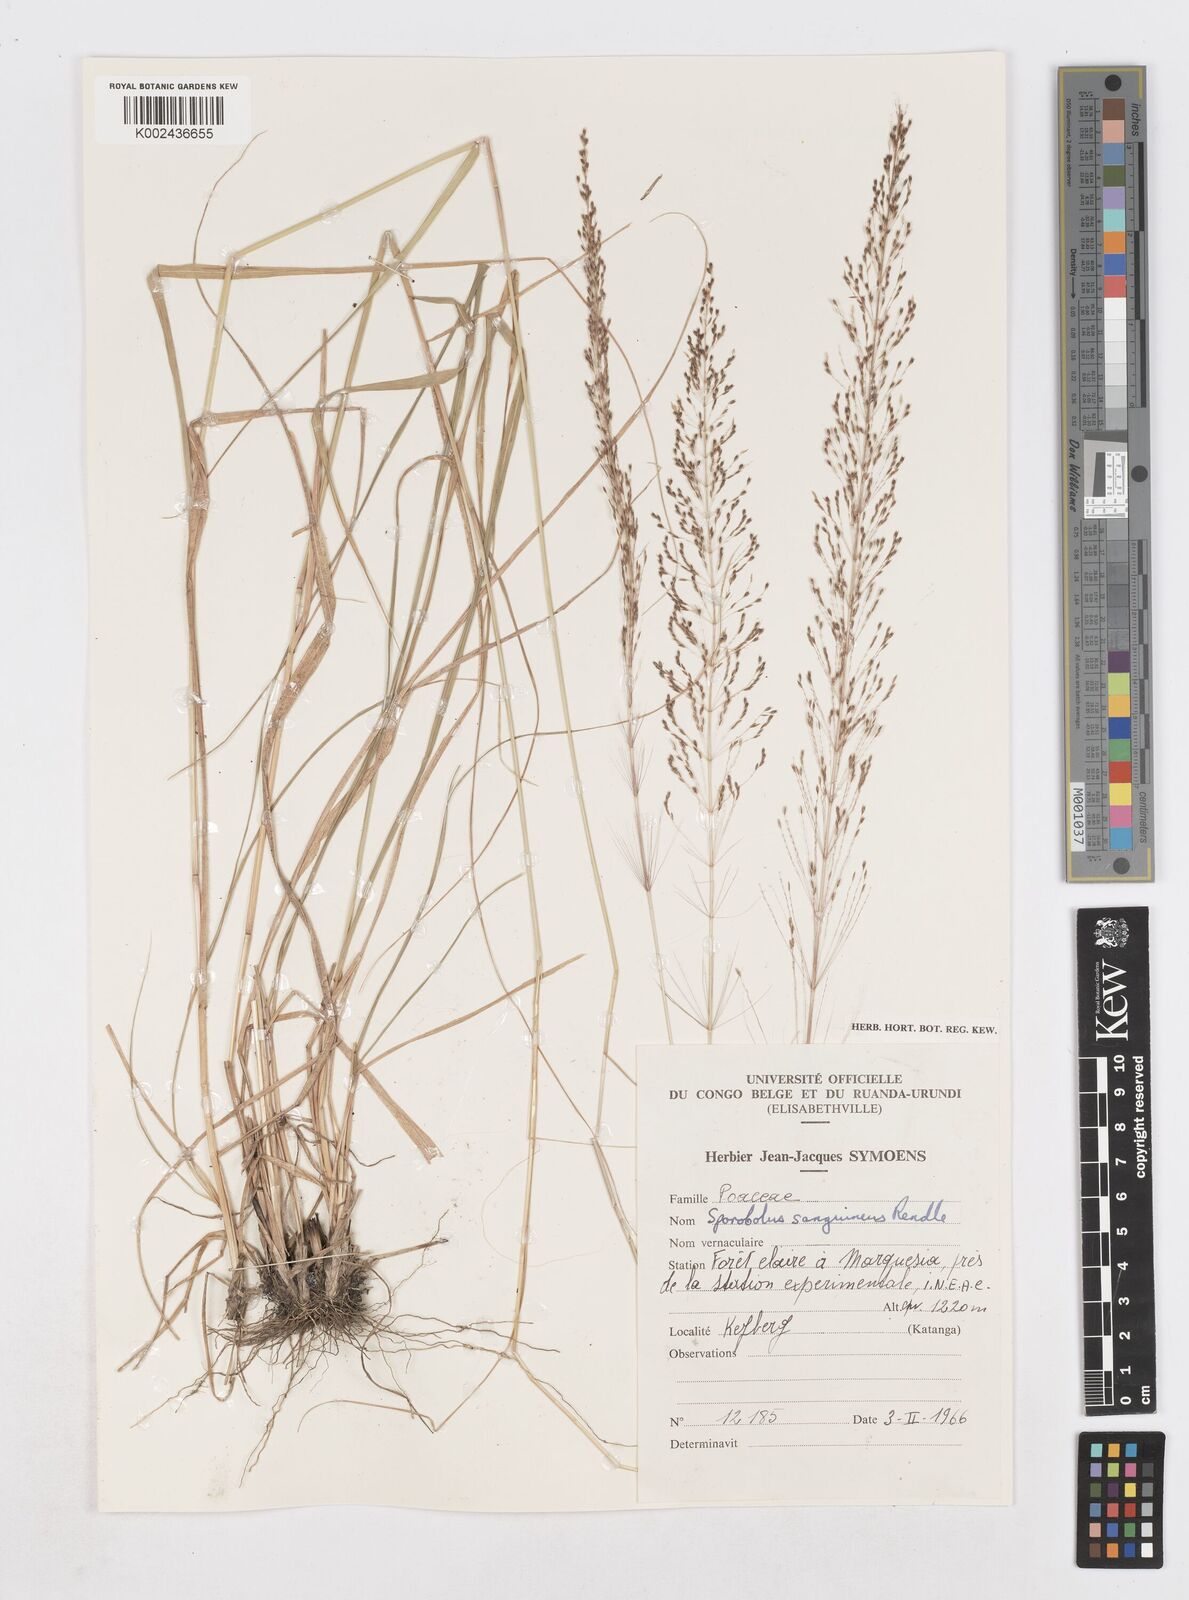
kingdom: Plantae
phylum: Tracheophyta
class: Liliopsida
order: Poales
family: Poaceae
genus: Sporobolus
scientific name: Sporobolus sanguineus
